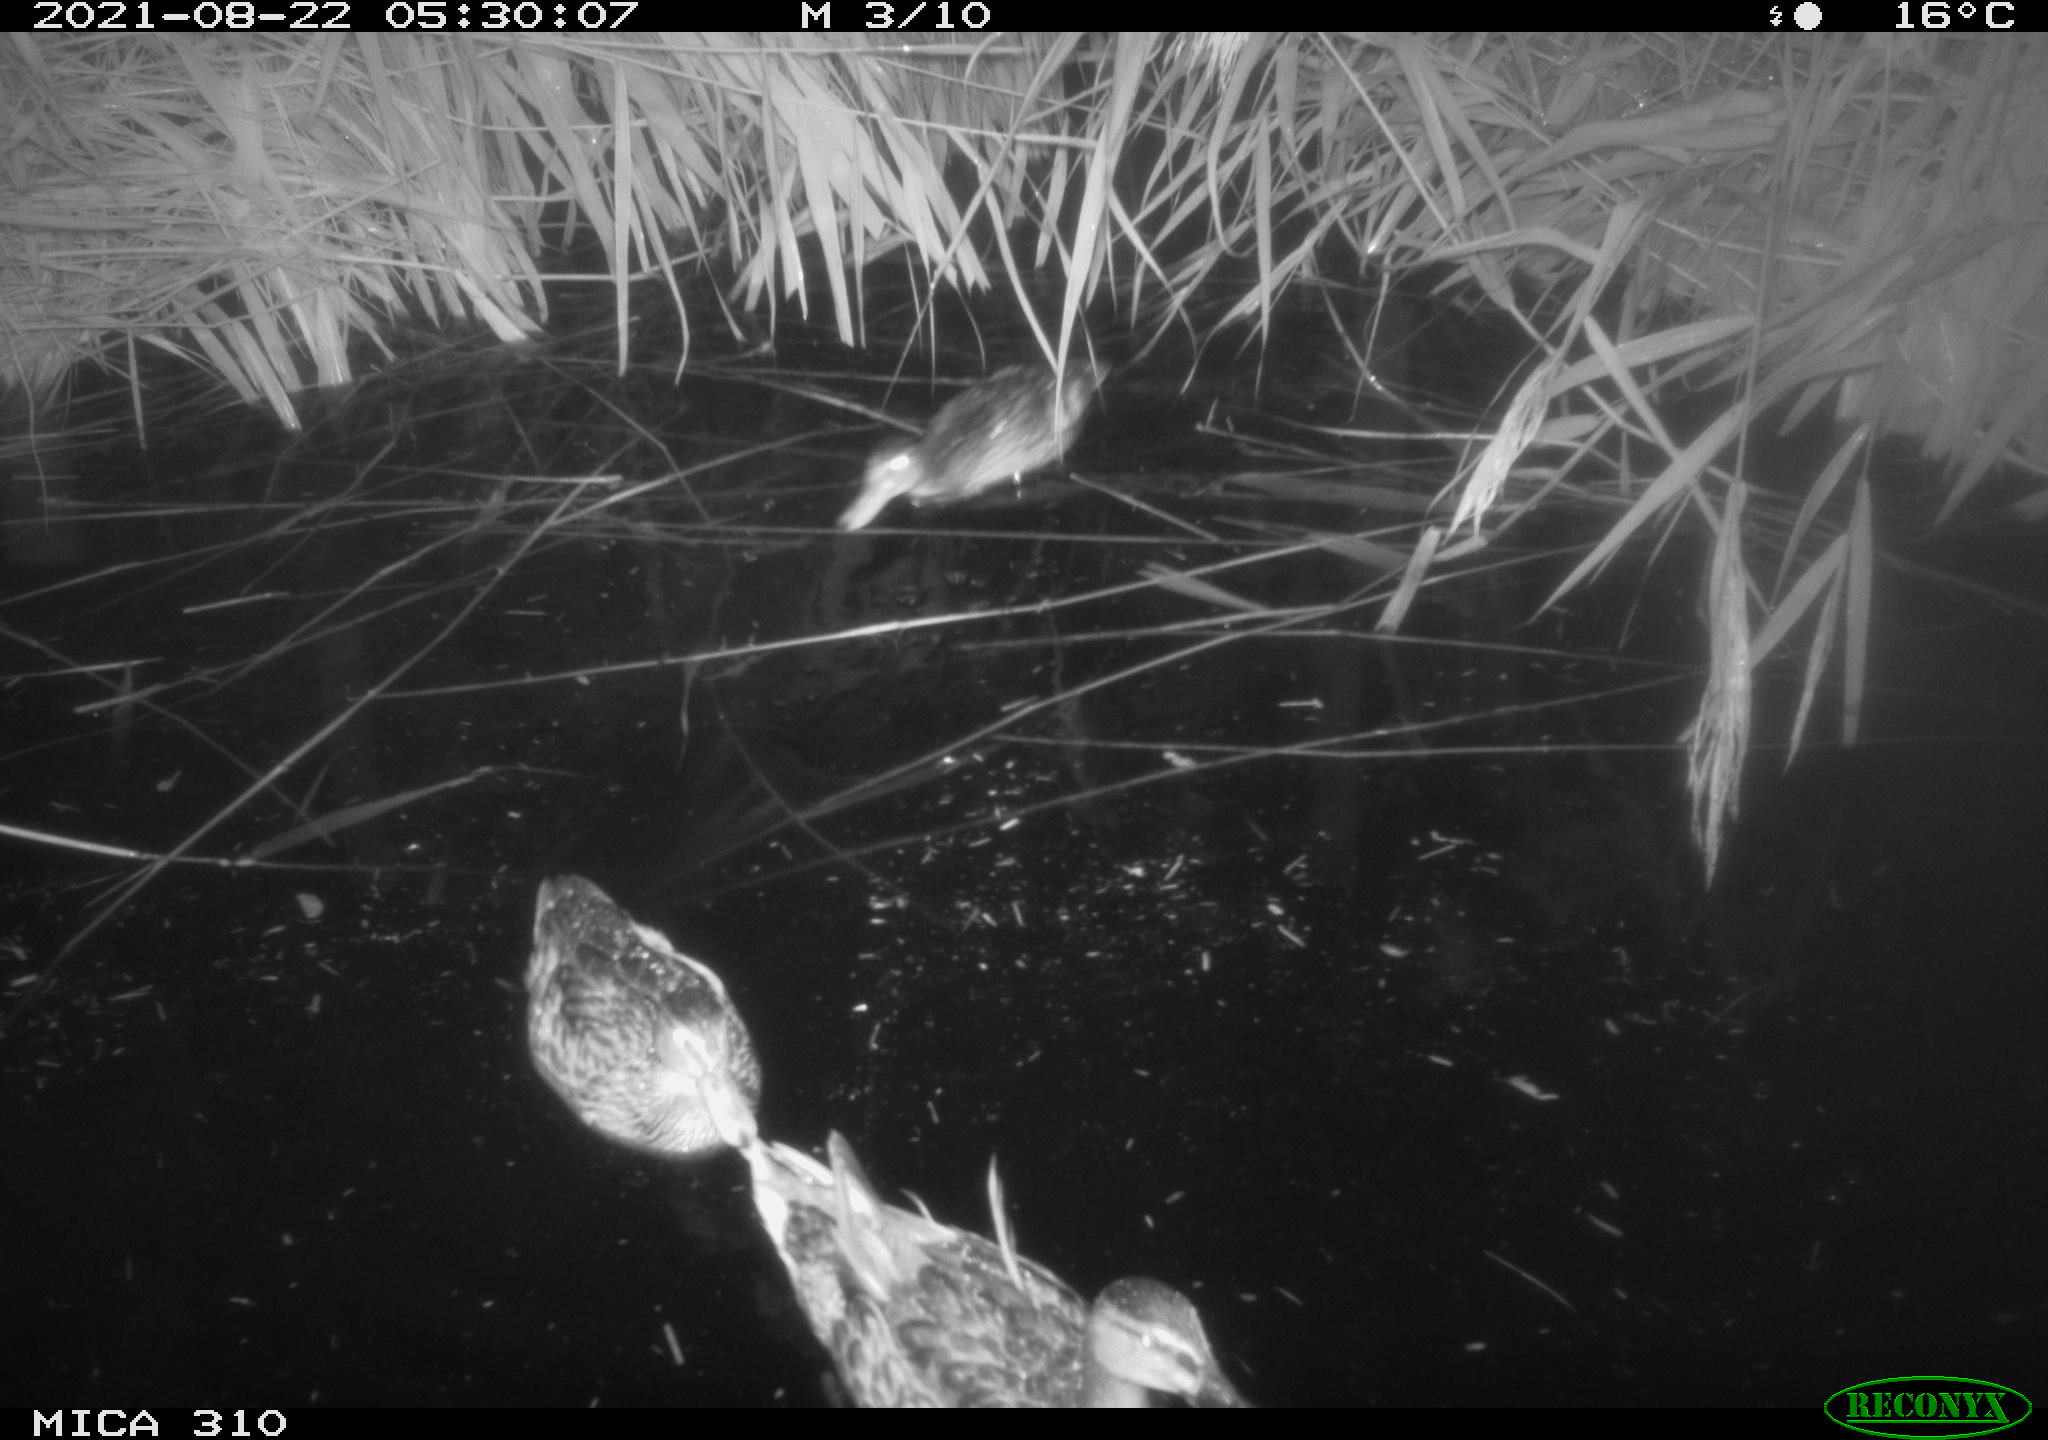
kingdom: Animalia
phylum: Chordata
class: Aves
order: Anseriformes
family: Anatidae
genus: Anas
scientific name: Anas platyrhynchos
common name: Mallard
